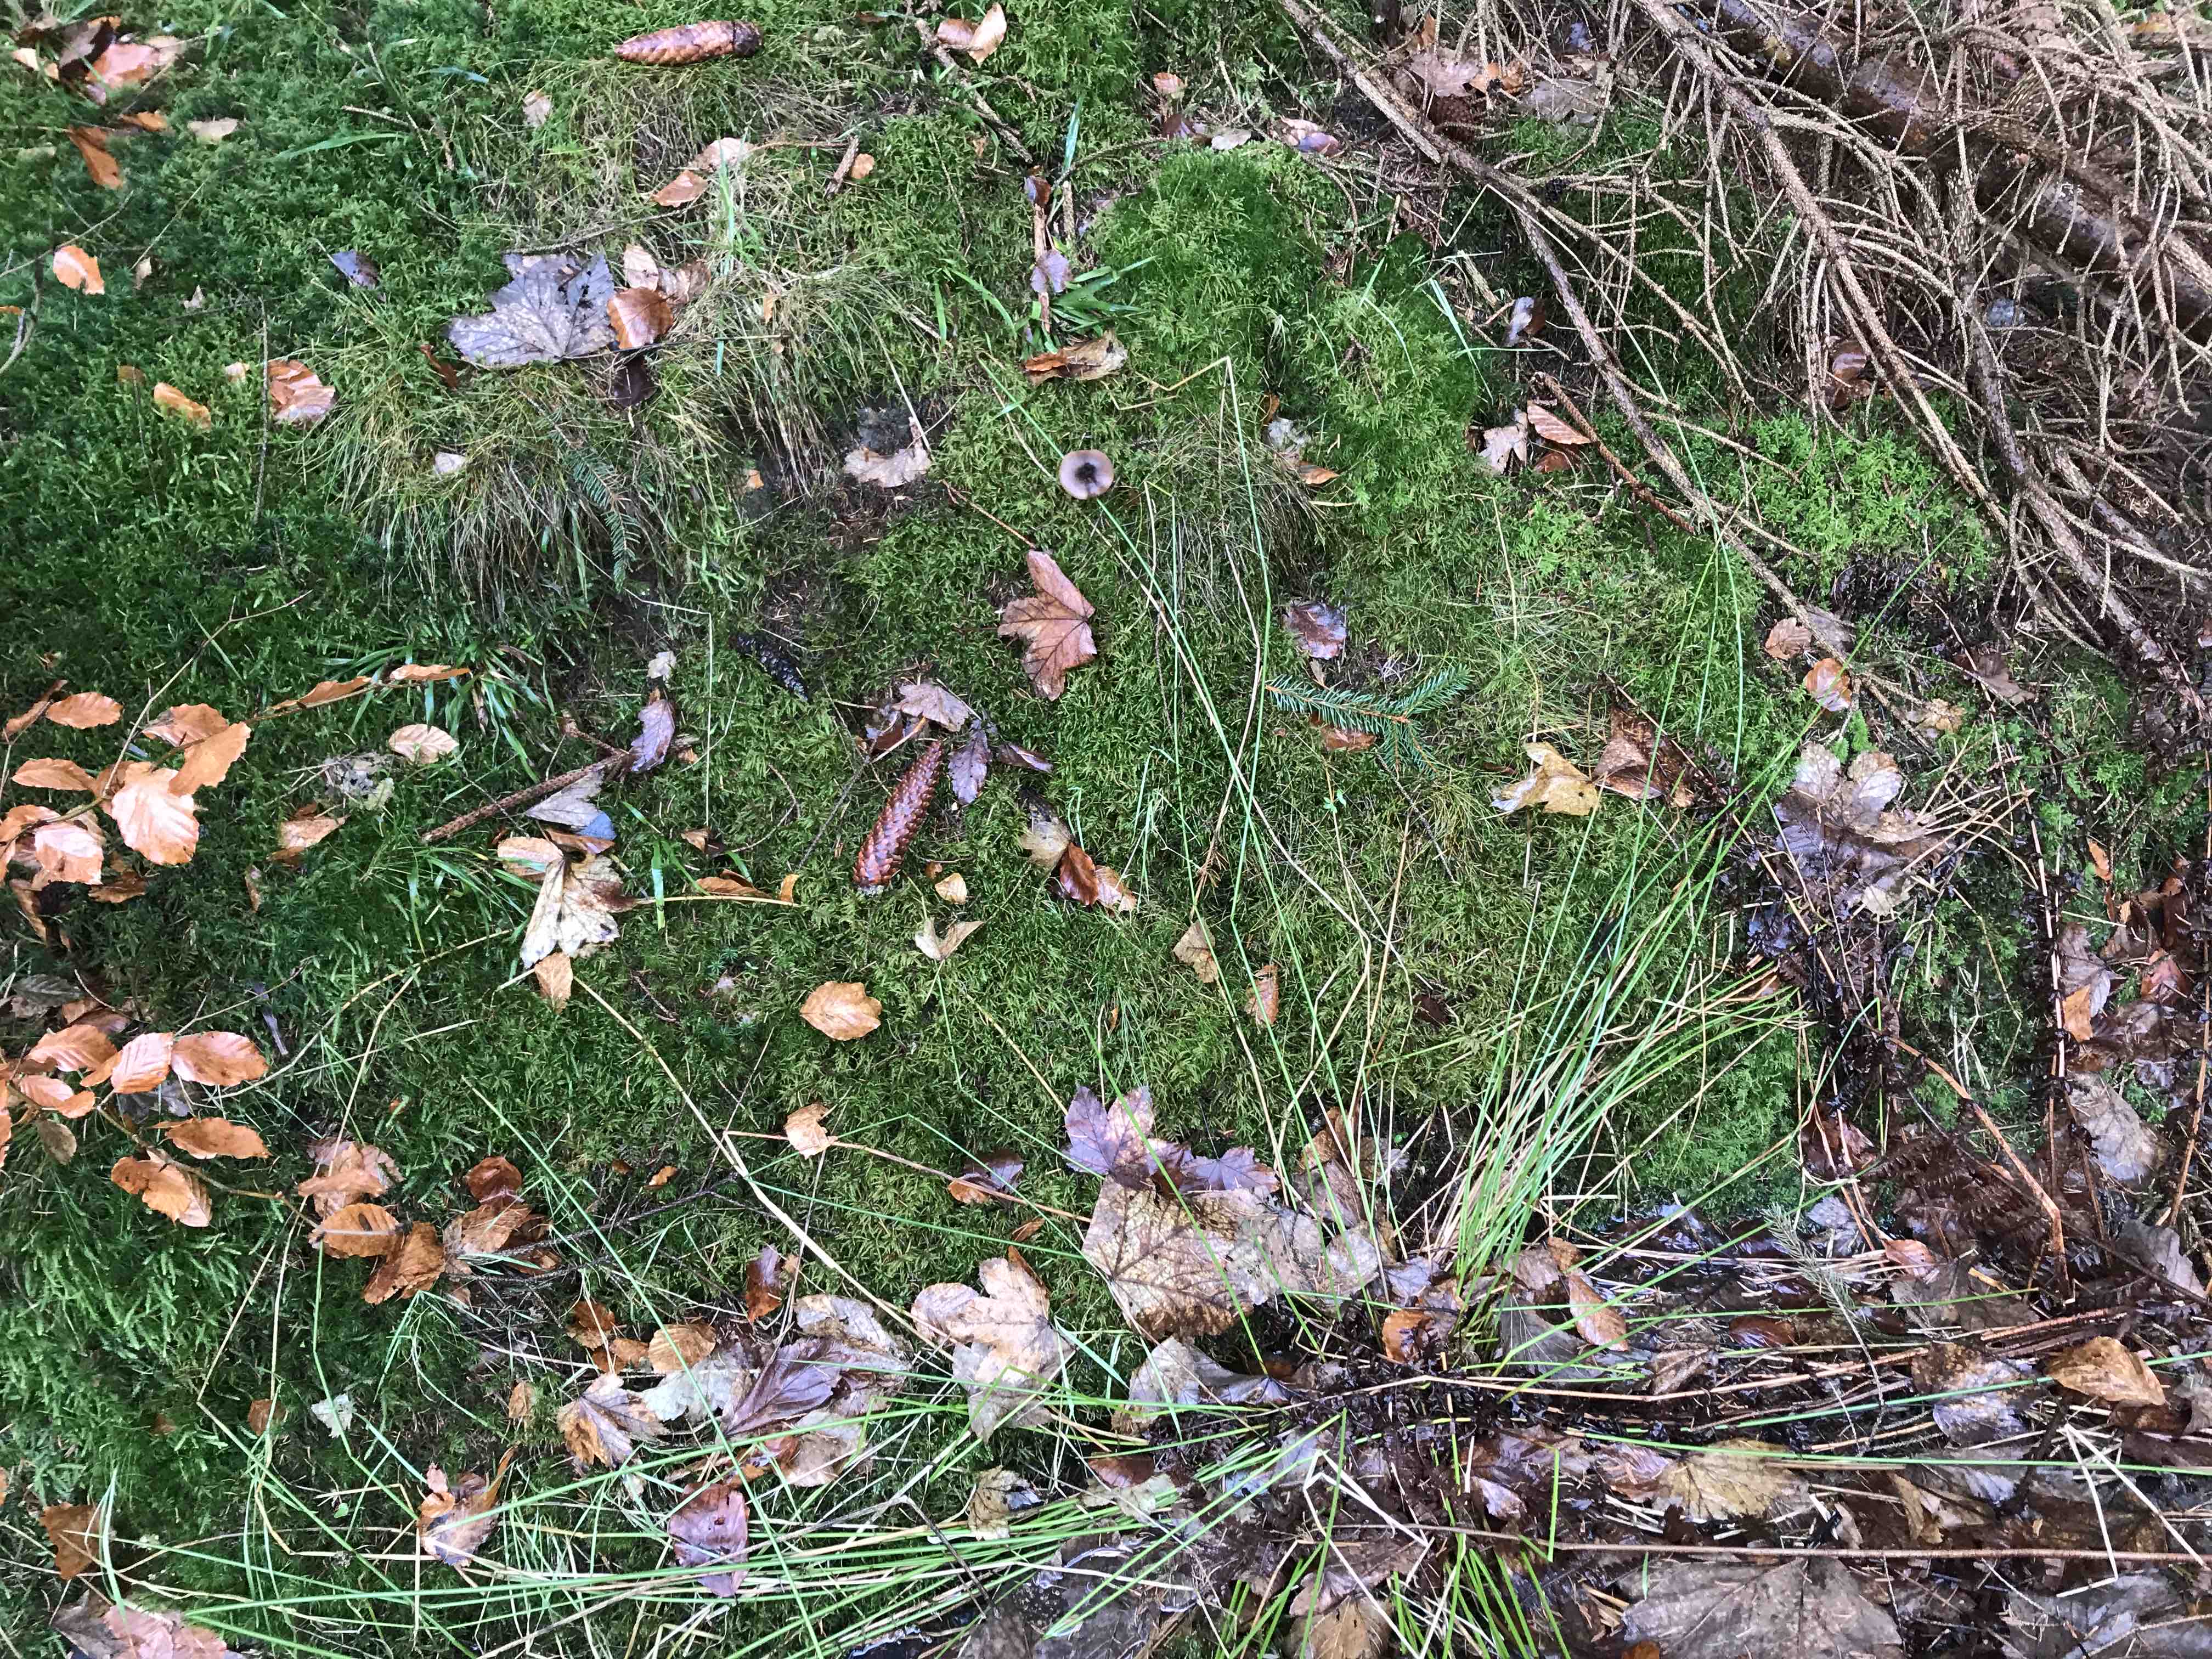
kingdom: Fungi
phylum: Basidiomycota
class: Agaricomycetes
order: Agaricales
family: Pseudoclitocybaceae
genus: Pseudoclitocybe
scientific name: Pseudoclitocybe cyathiformis
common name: almindelig bægertragthat
